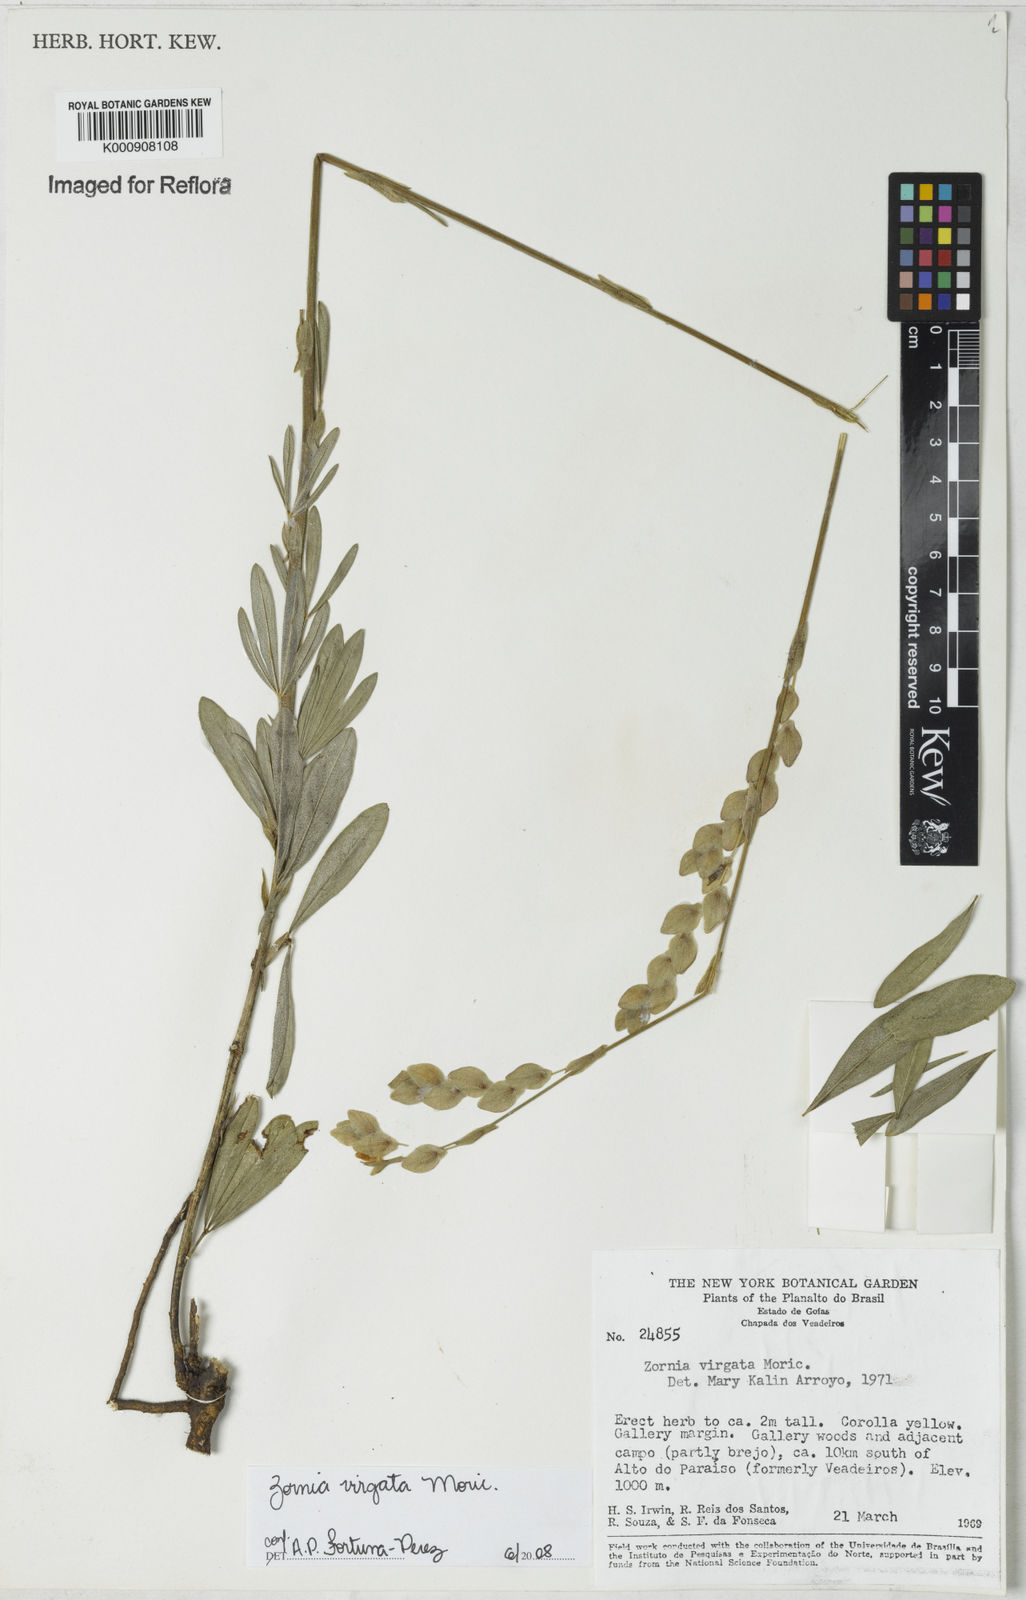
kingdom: Plantae
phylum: Tracheophyta
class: Magnoliopsida
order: Fabales
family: Fabaceae
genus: Zornia
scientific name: Zornia virgata
